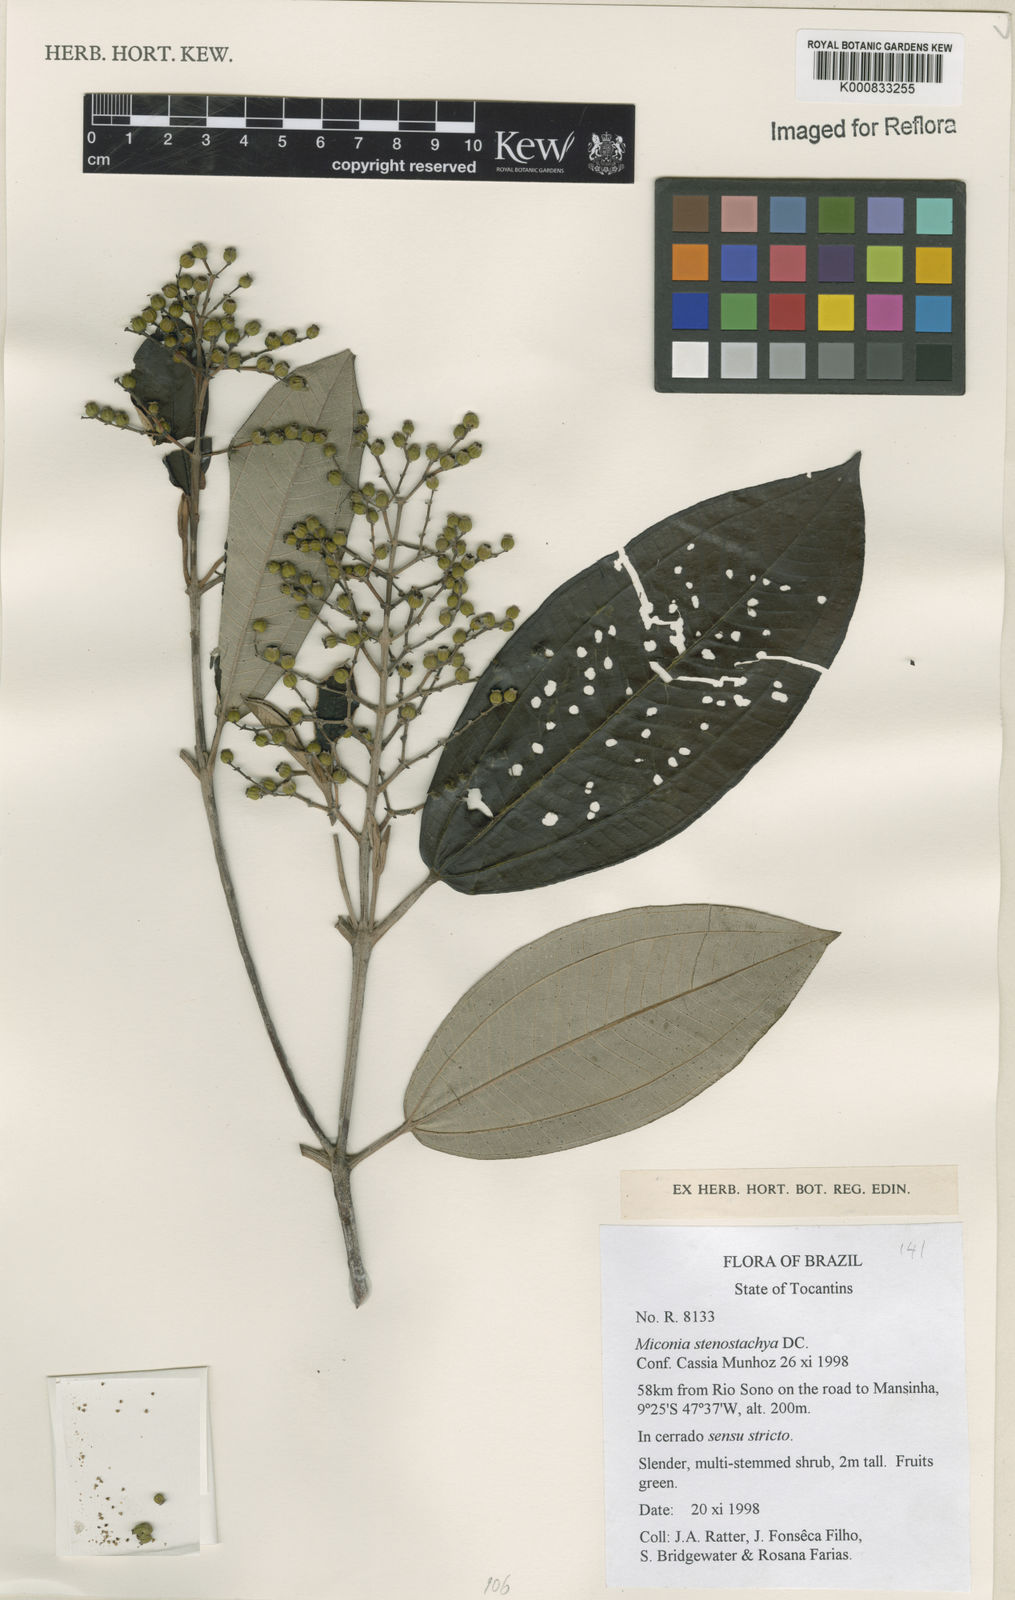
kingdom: Plantae
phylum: Tracheophyta
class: Magnoliopsida
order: Myrtales
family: Melastomataceae
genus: Miconia
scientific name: Miconia stenostachya
